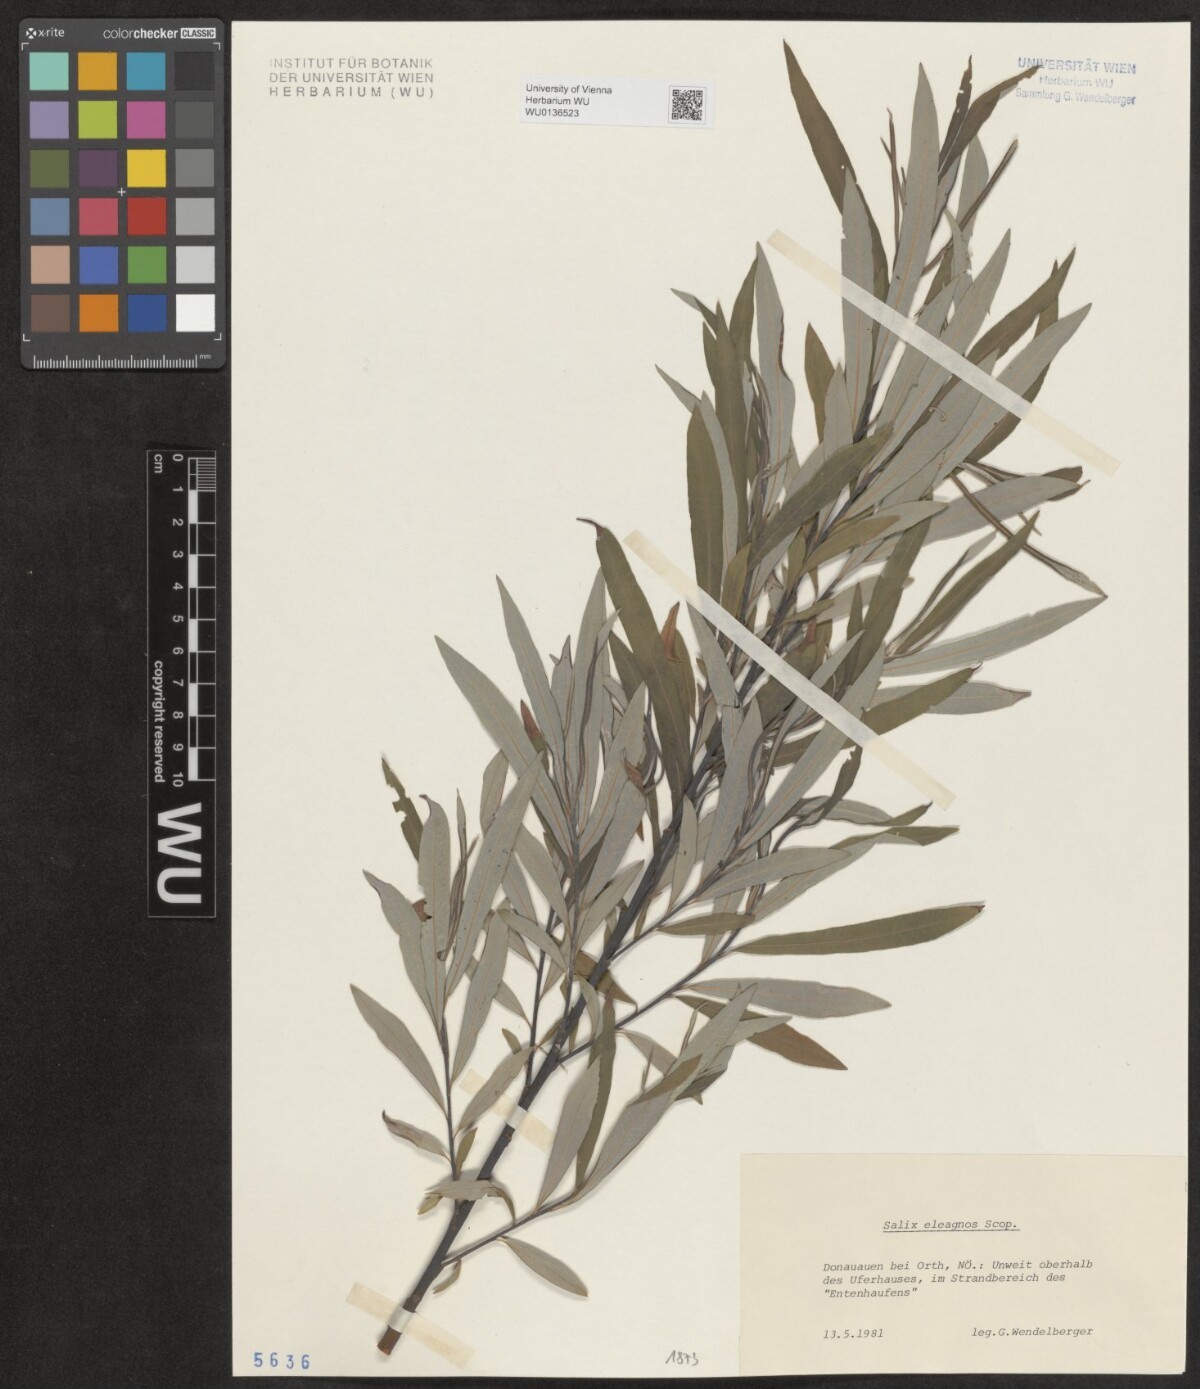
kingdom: Plantae
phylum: Tracheophyta
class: Magnoliopsida
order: Malpighiales
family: Salicaceae
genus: Salix
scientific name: Salix eleagnos
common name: Elaeagnus willow
